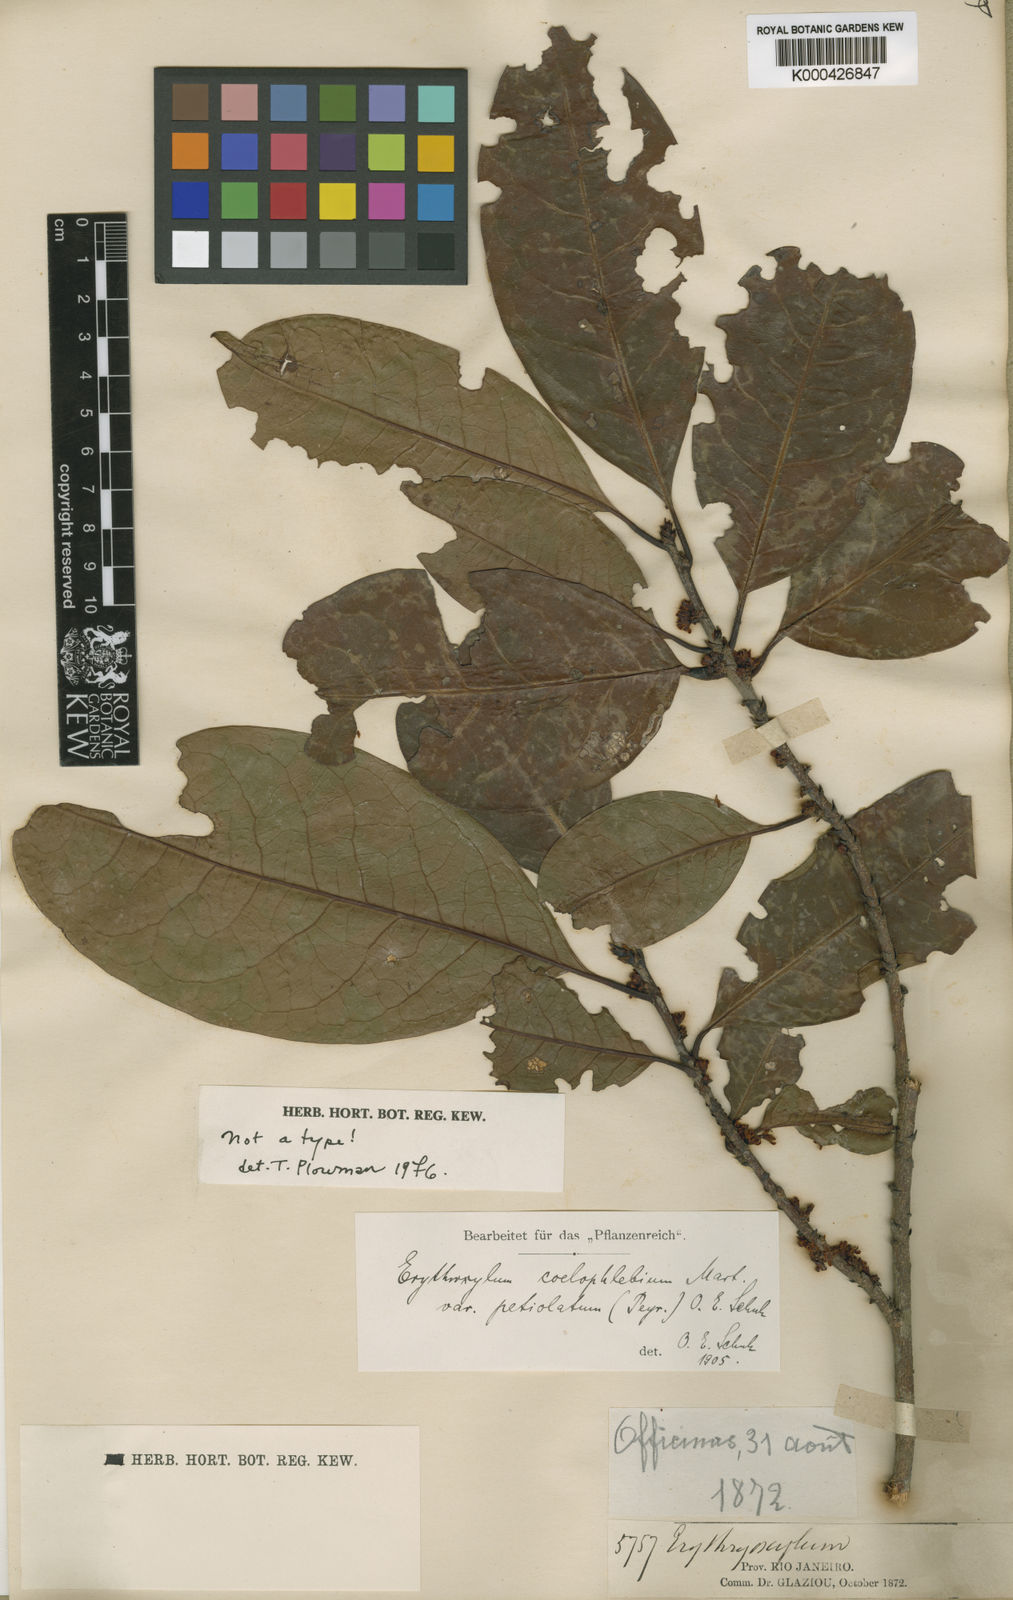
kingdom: Plantae
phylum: Tracheophyta
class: Magnoliopsida
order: Malpighiales
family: Erythroxylaceae
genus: Erythroxylum
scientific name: Erythroxylum coelophlebium
